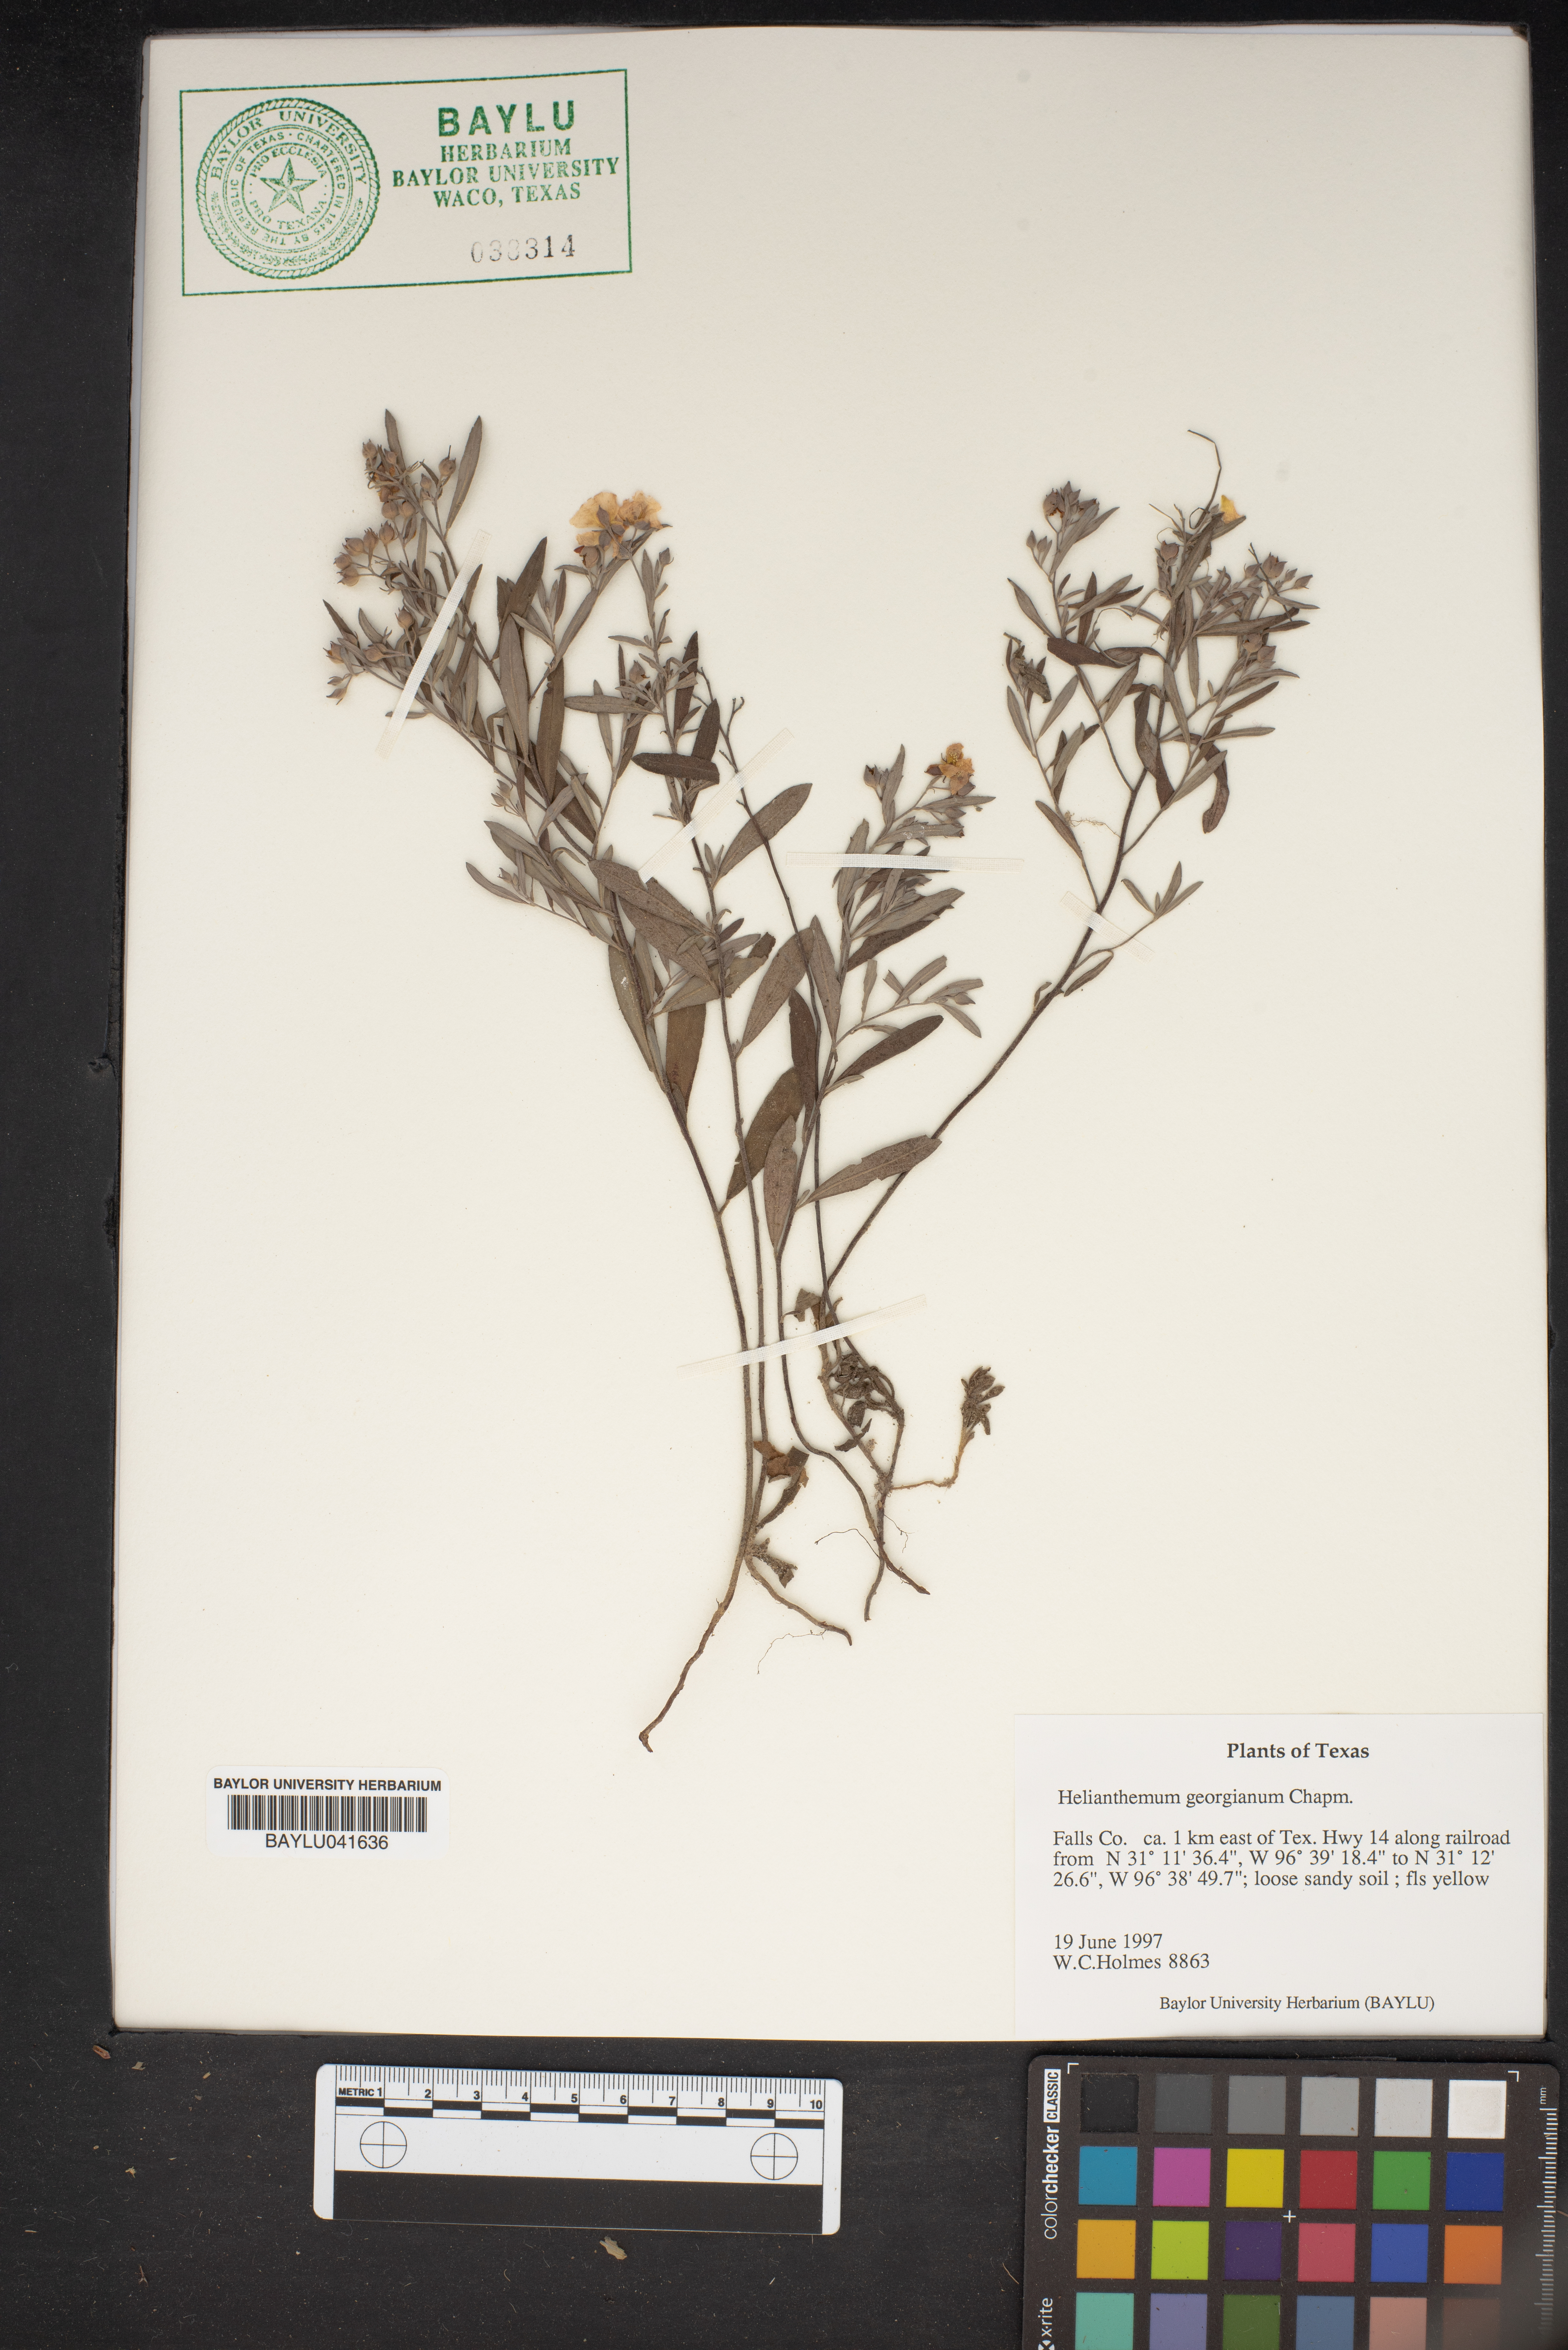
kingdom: Plantae
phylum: Tracheophyta
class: Magnoliopsida
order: Malvales
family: Cistaceae
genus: Crocanthemum
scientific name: Crocanthemum georgianum
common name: Georgia frostweed
